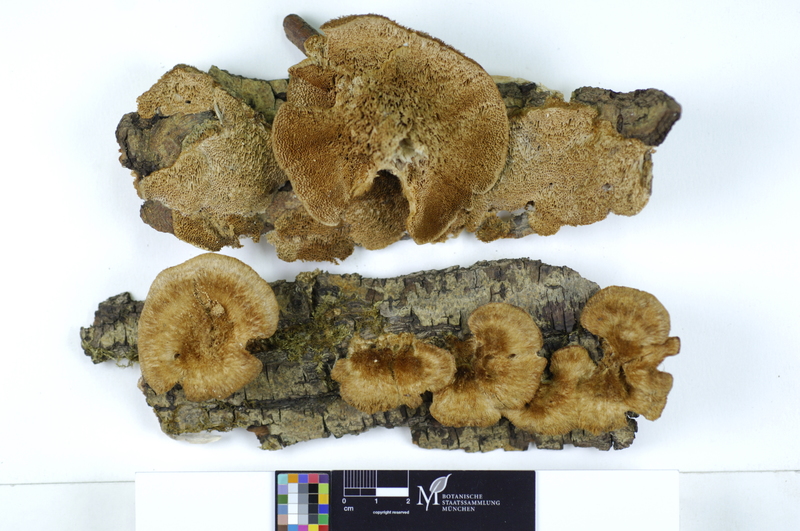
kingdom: Plantae
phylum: Tracheophyta
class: Magnoliopsida
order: Malpighiales
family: Salicaceae
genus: Salix
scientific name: Salix alba
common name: White willow
